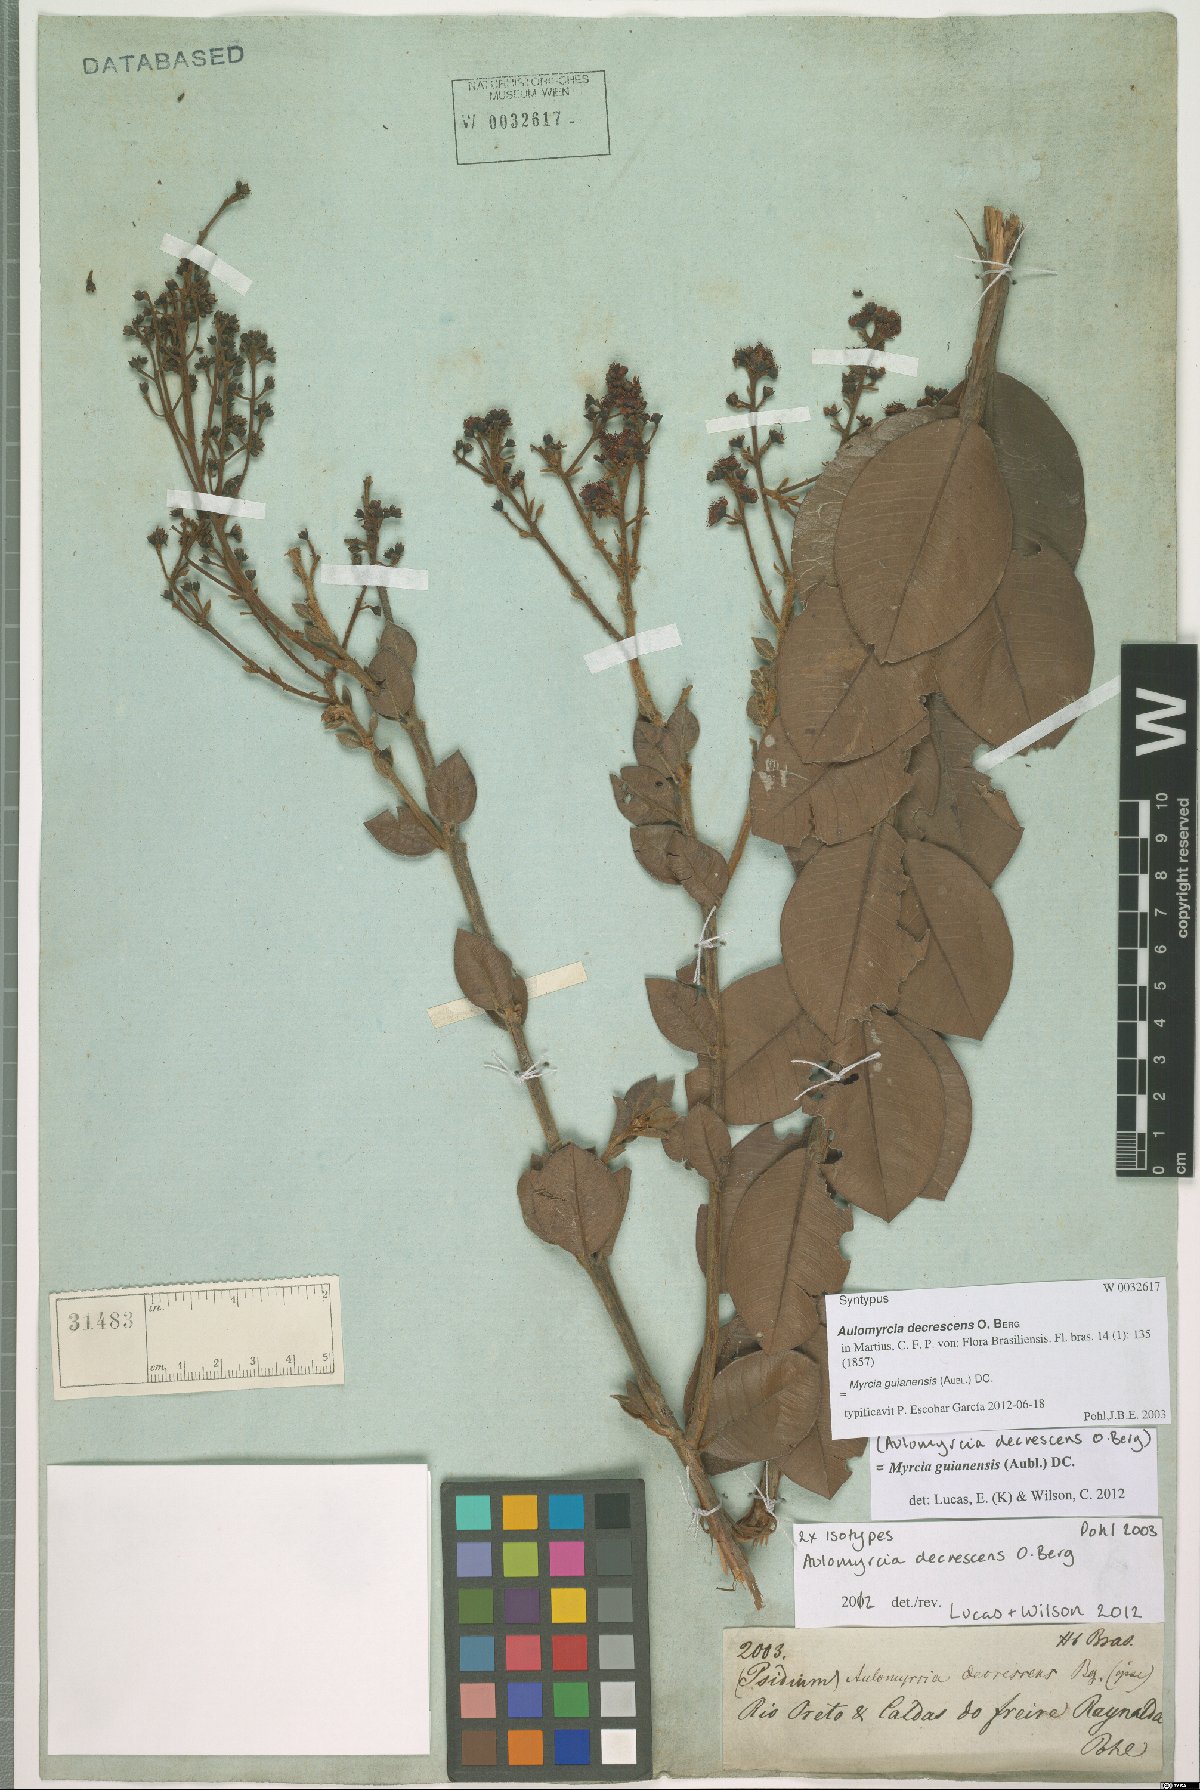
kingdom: Plantae
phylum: Tracheophyta
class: Magnoliopsida
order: Myrtales
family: Myrtaceae
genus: Myrcia
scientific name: Myrcia guianensis
